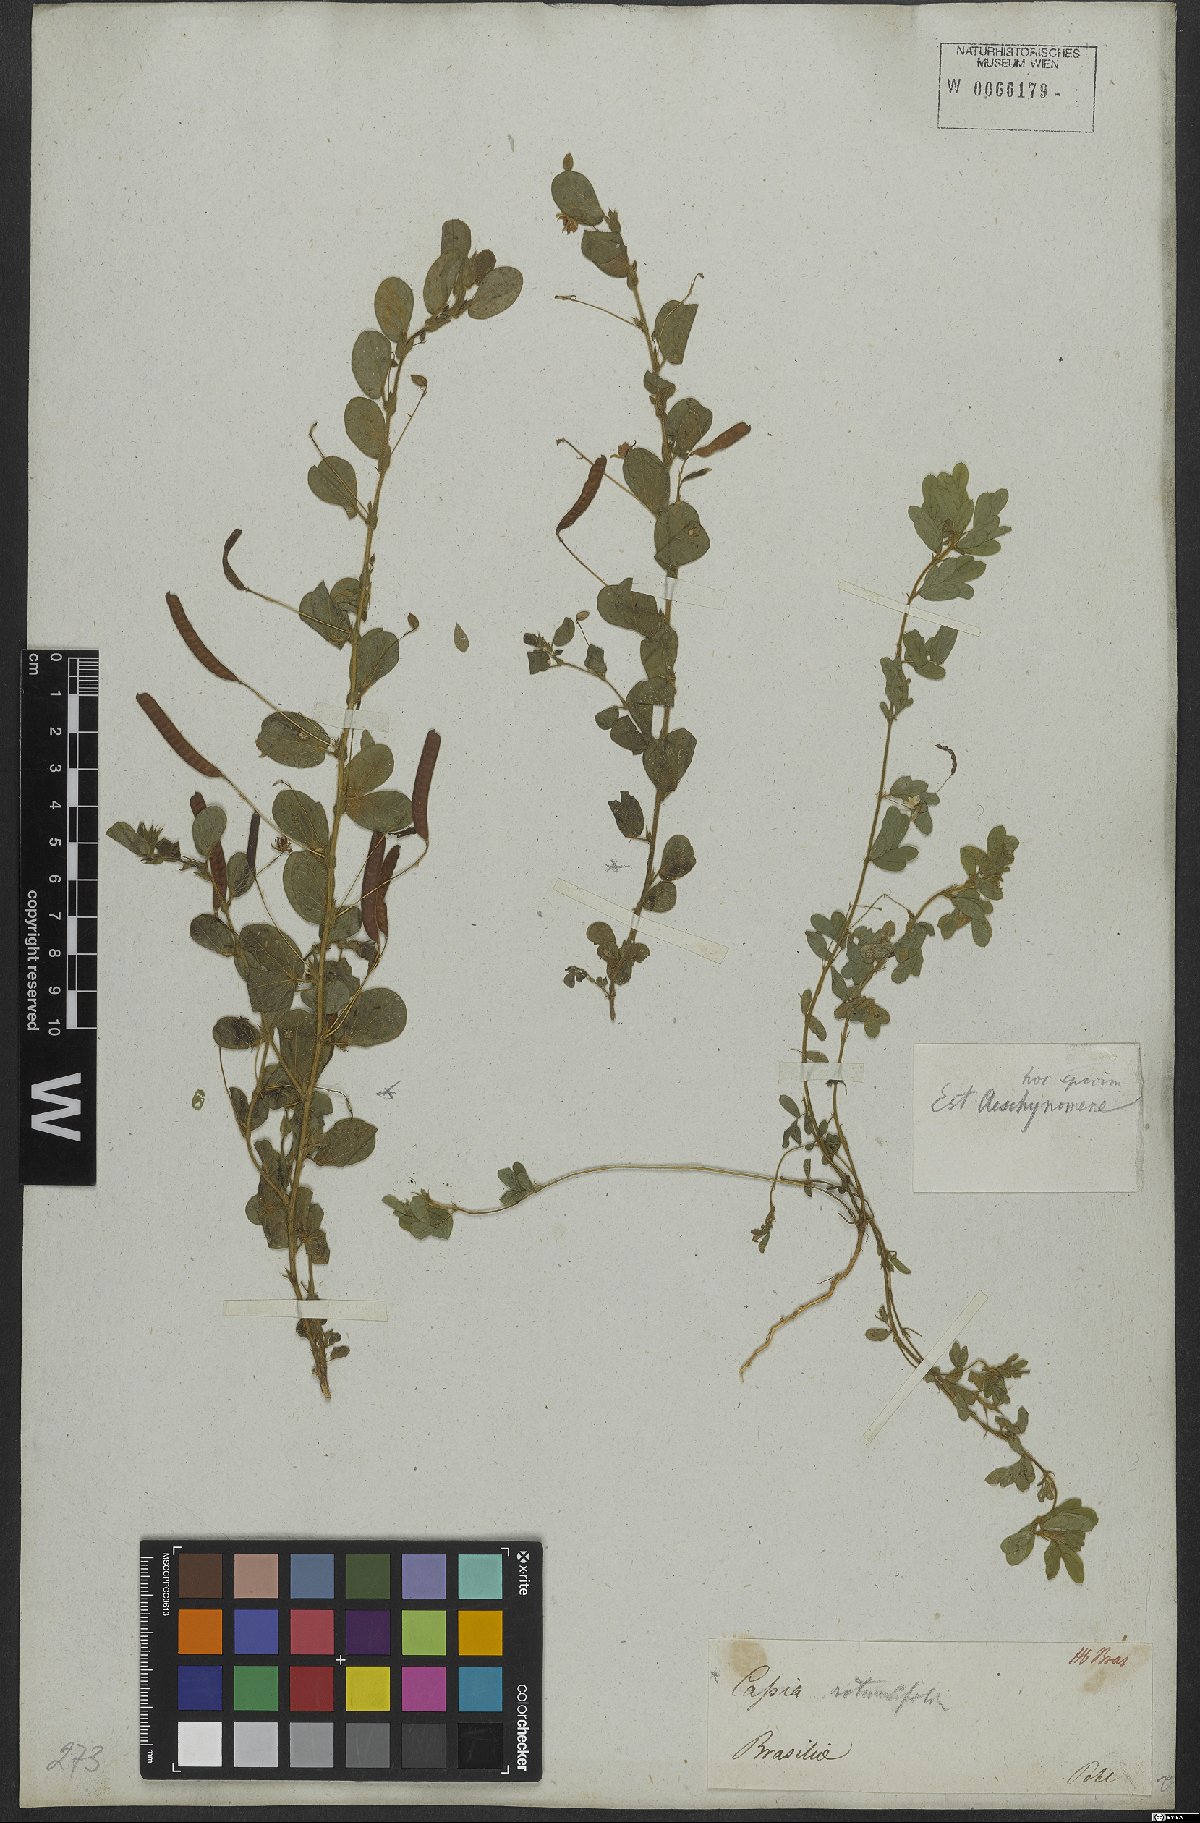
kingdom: Plantae
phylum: Tracheophyta
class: Magnoliopsida
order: Fabales
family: Fabaceae
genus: Chamaecrista
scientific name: Chamaecrista rotundifolia
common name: Round-leaf cassia
